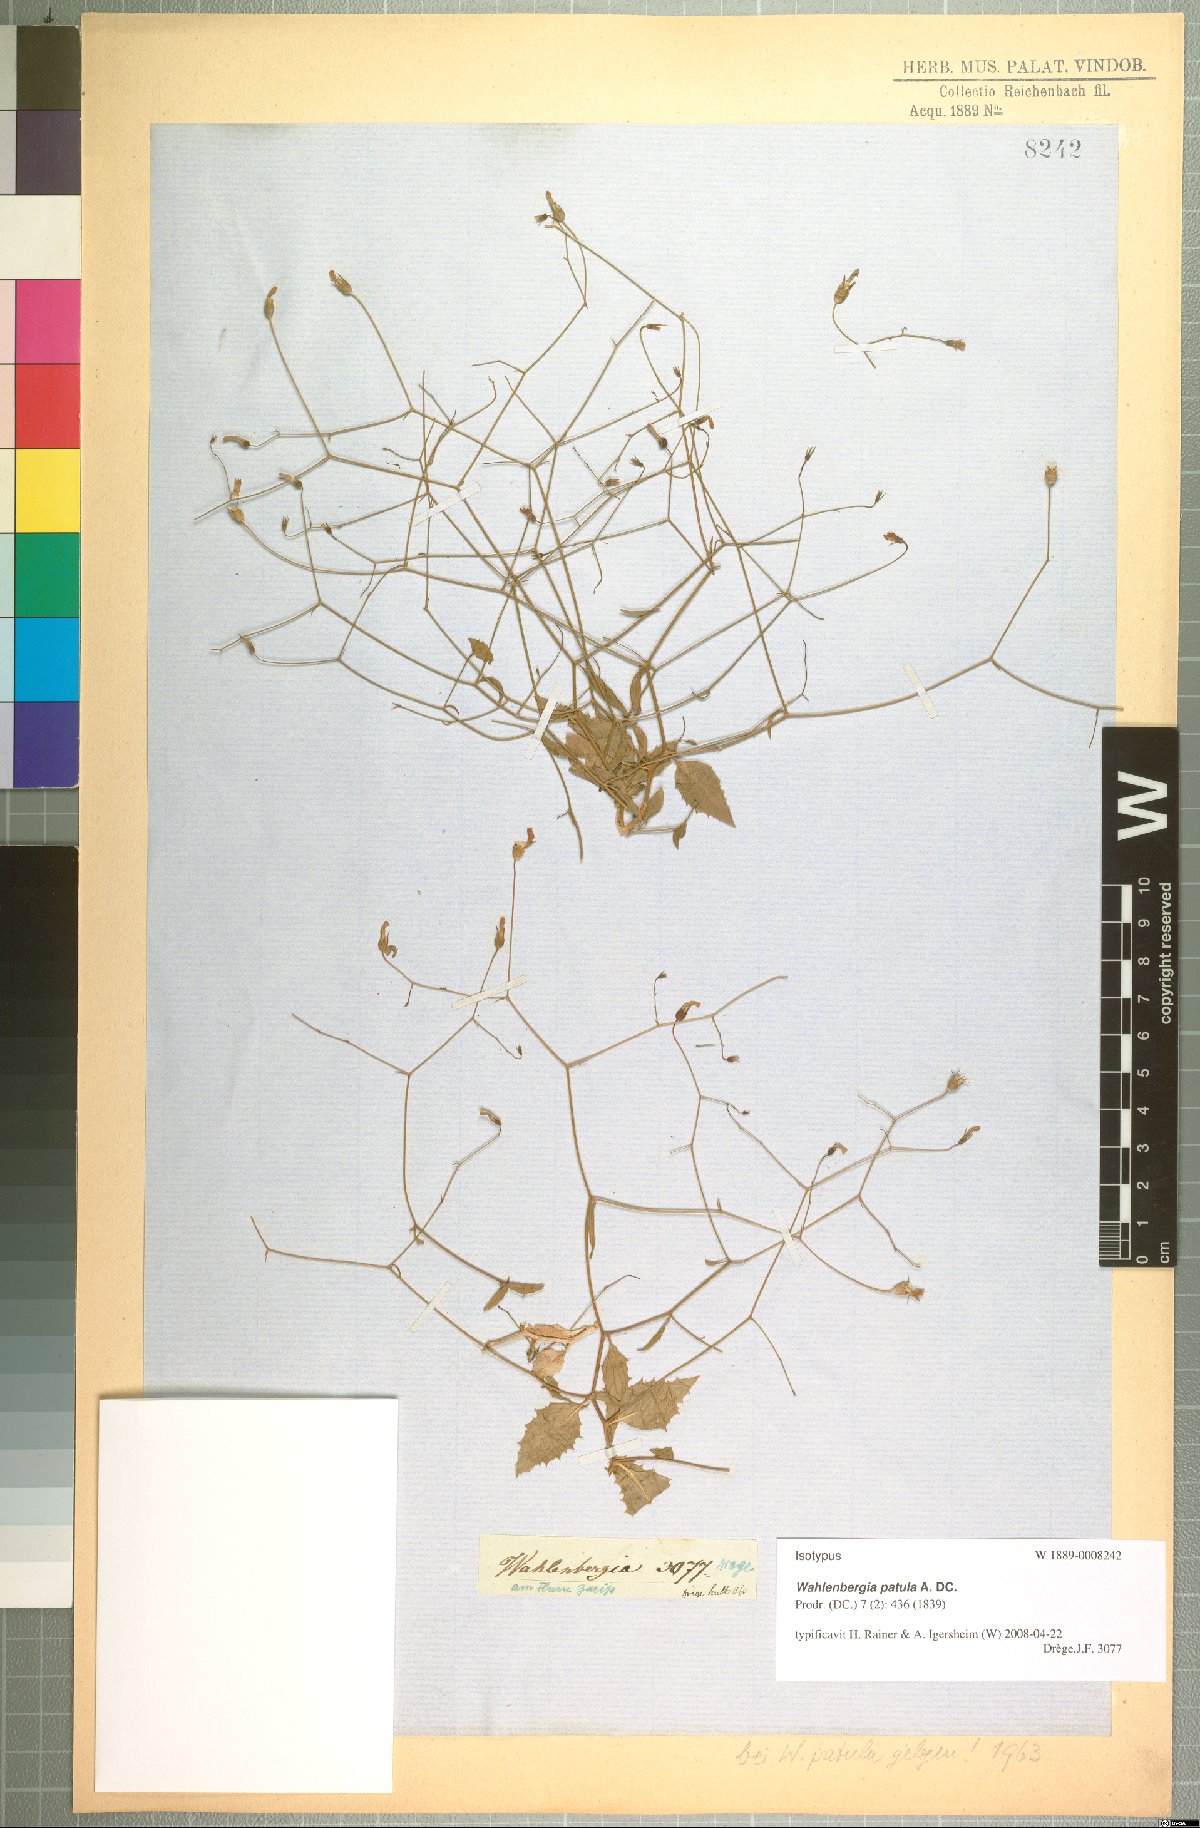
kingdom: Plantae
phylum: Tracheophyta
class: Magnoliopsida
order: Asterales
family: Campanulaceae
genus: Wahlenbergia
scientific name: Wahlenbergia patula
